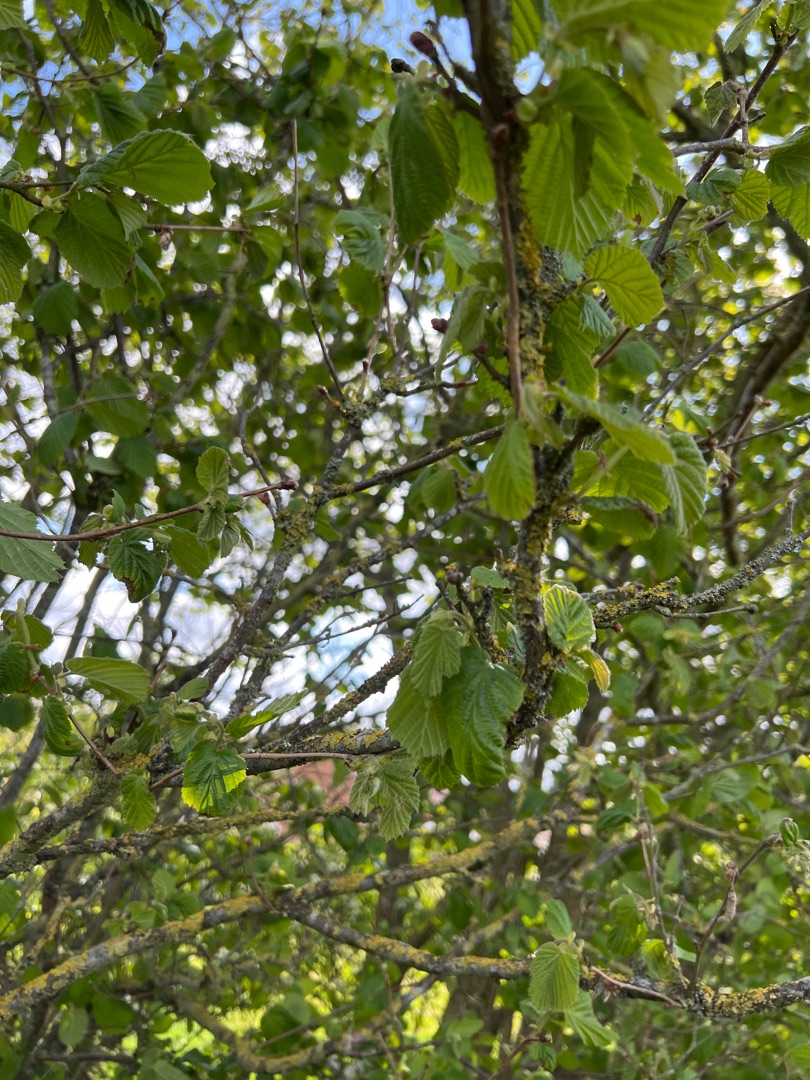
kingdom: Plantae
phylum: Tracheophyta
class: Magnoliopsida
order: Fagales
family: Betulaceae
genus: Corylus
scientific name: Corylus avellana
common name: Hassel
